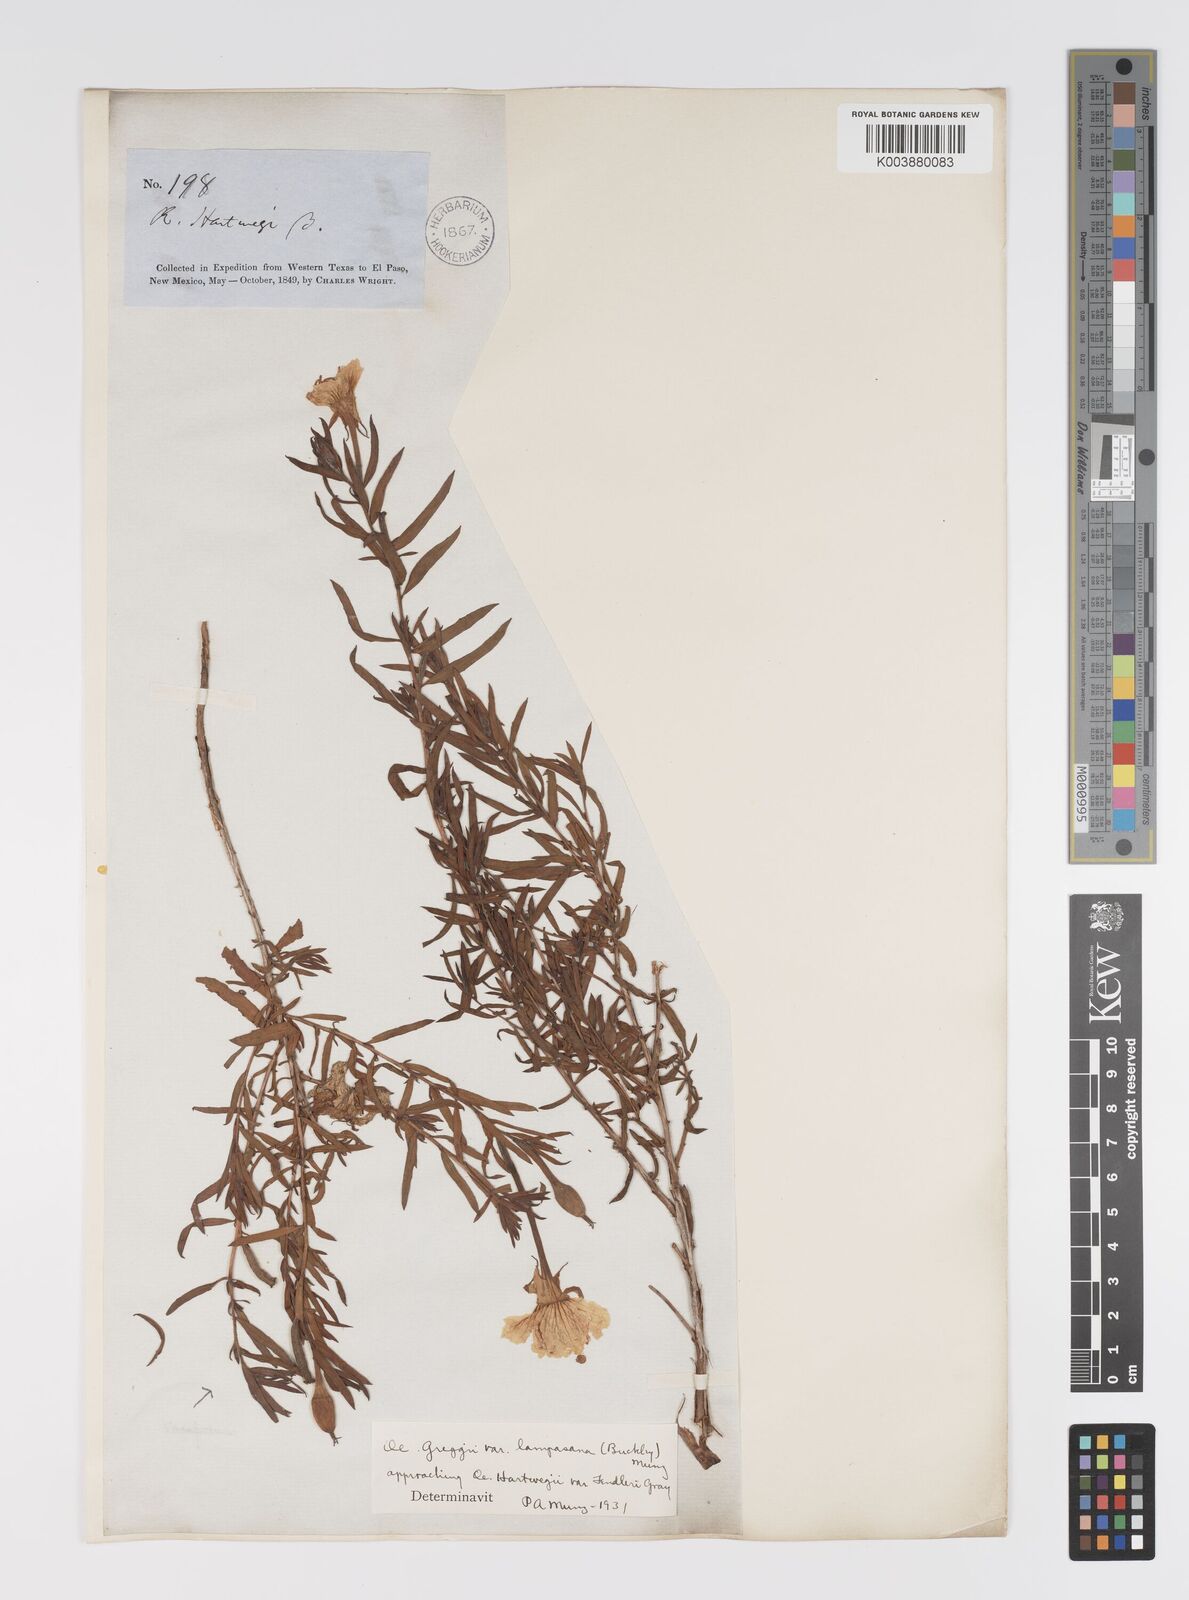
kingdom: Plantae
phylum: Tracheophyta
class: Magnoliopsida
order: Myrtales
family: Onagraceae
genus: Oenothera
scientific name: Oenothera hartwegii
